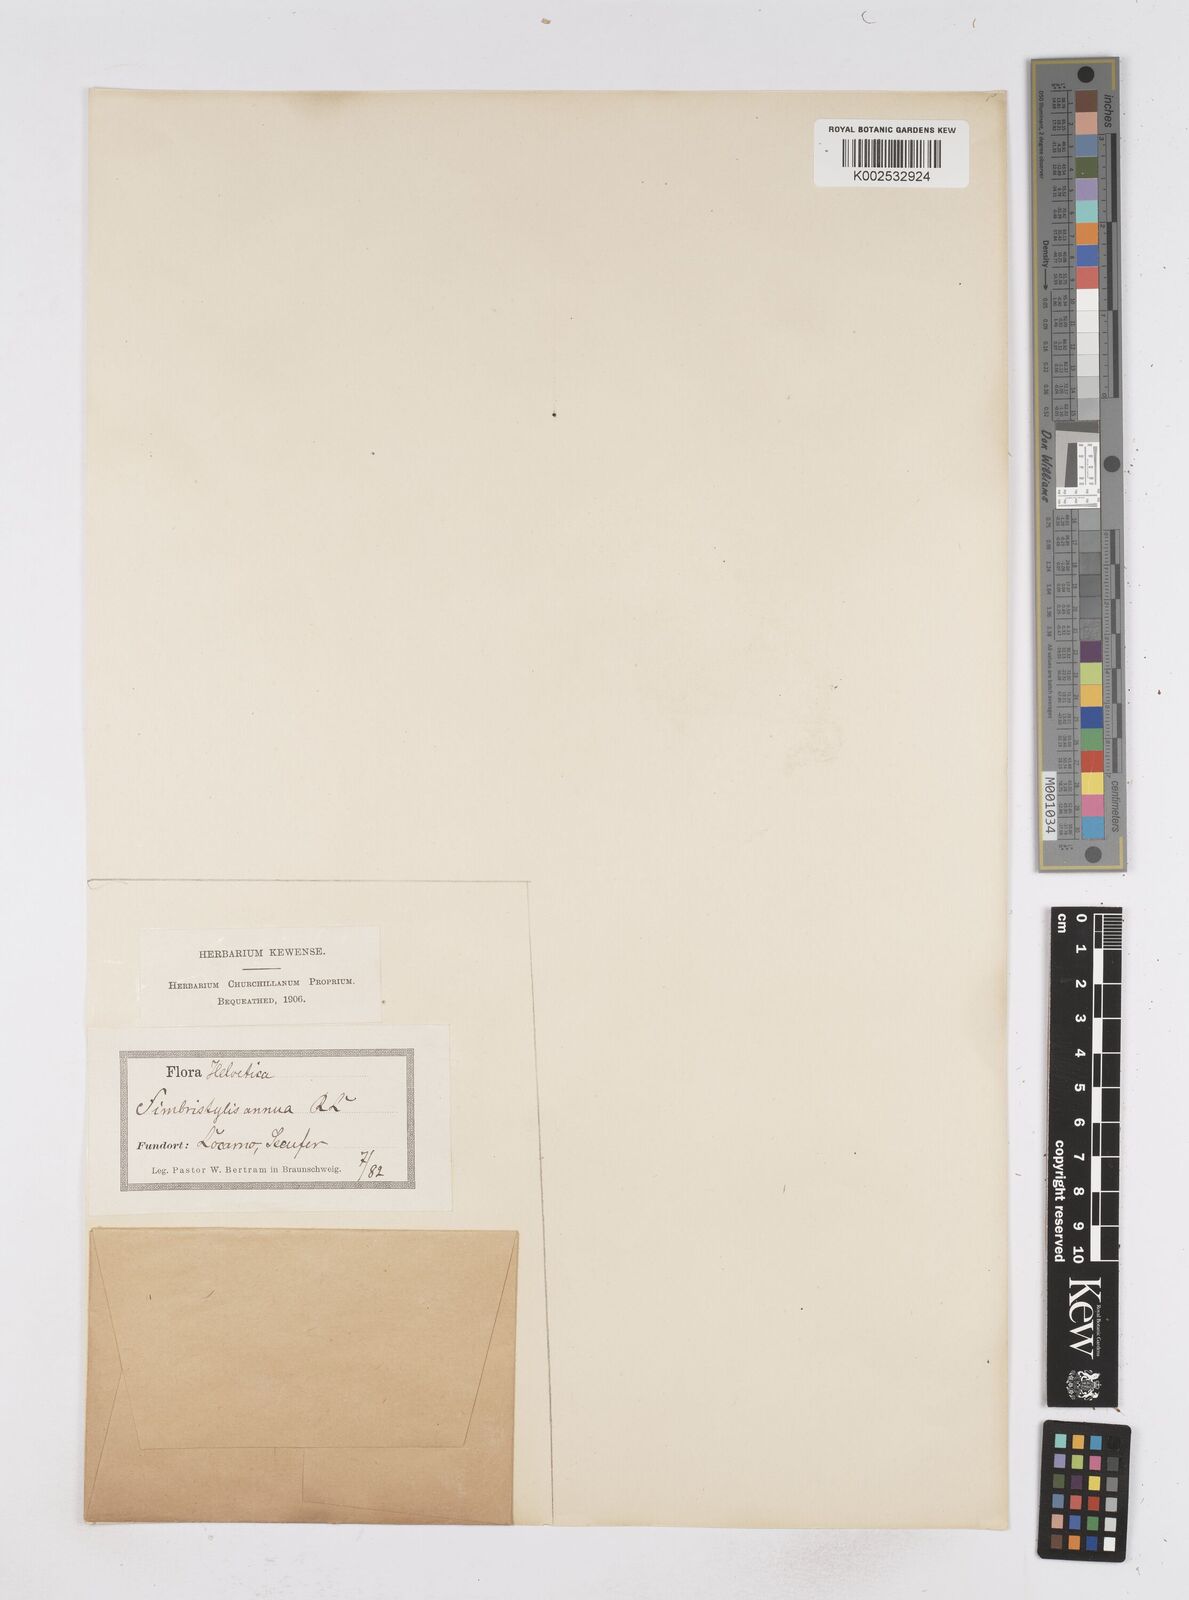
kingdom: Plantae
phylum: Tracheophyta
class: Liliopsida
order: Poales
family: Cyperaceae
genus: Fimbristylis
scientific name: Fimbristylis dichotoma
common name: Forked fimbry
